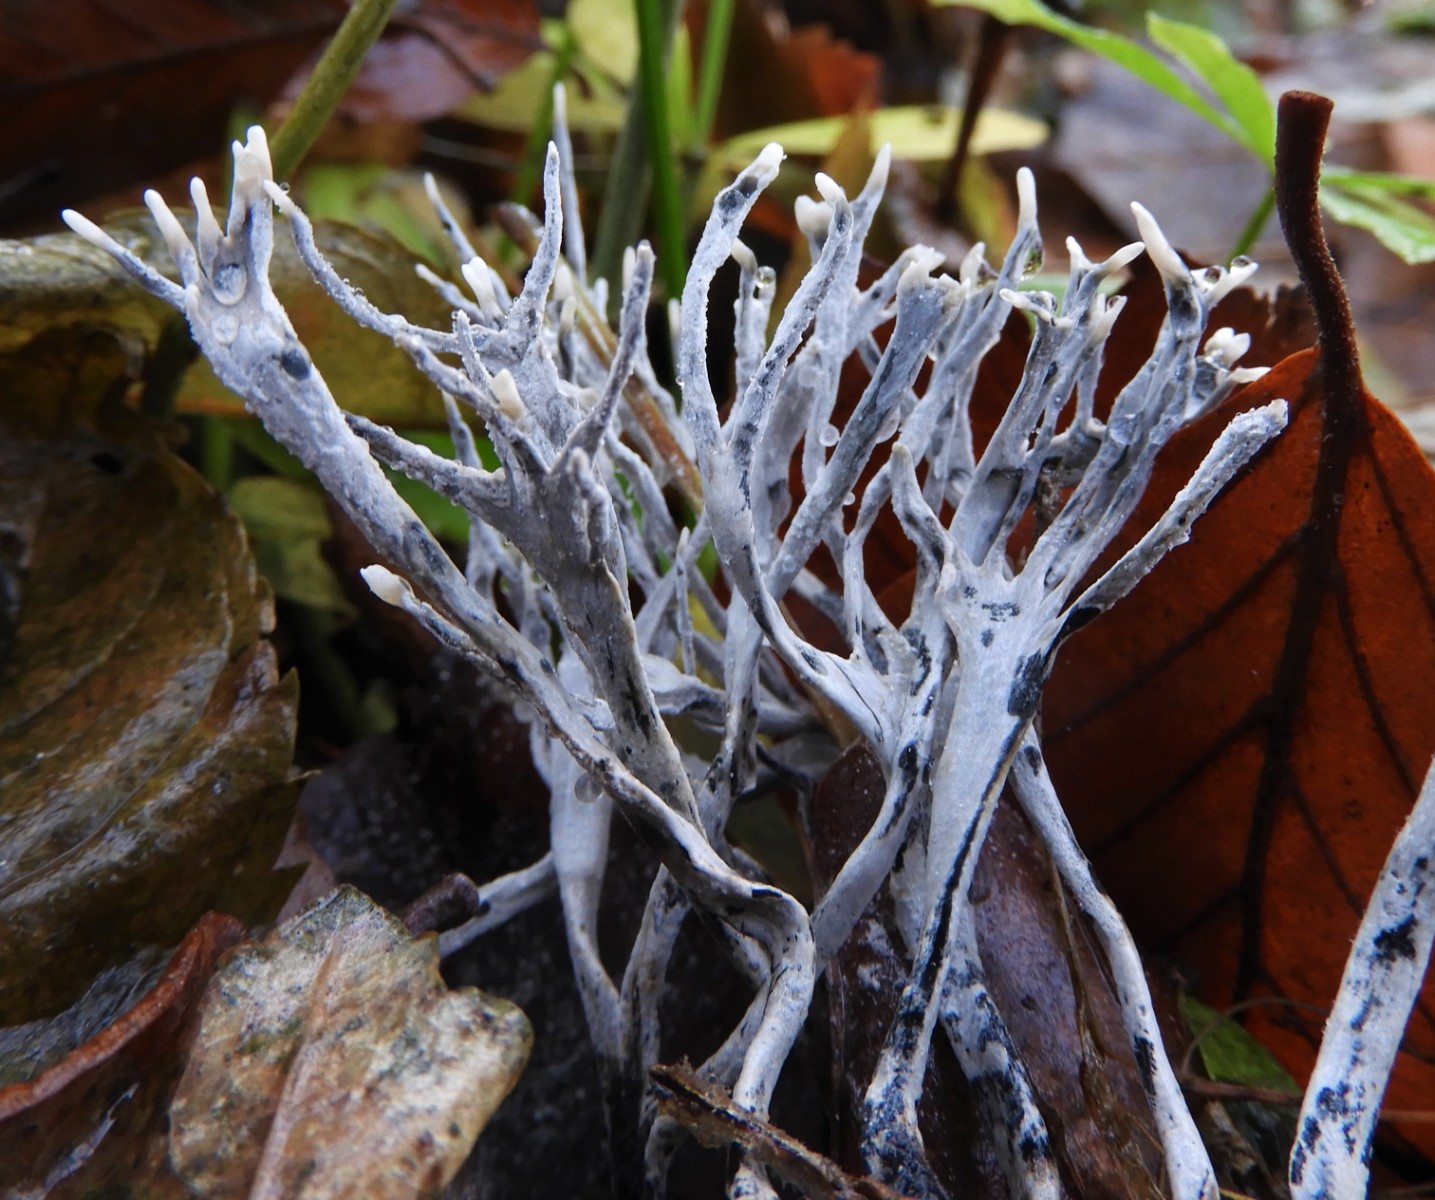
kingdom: Fungi
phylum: Ascomycota
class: Sordariomycetes
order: Xylariales
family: Xylariaceae
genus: Xylaria
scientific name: Xylaria hypoxylon
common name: grenet stødsvamp
